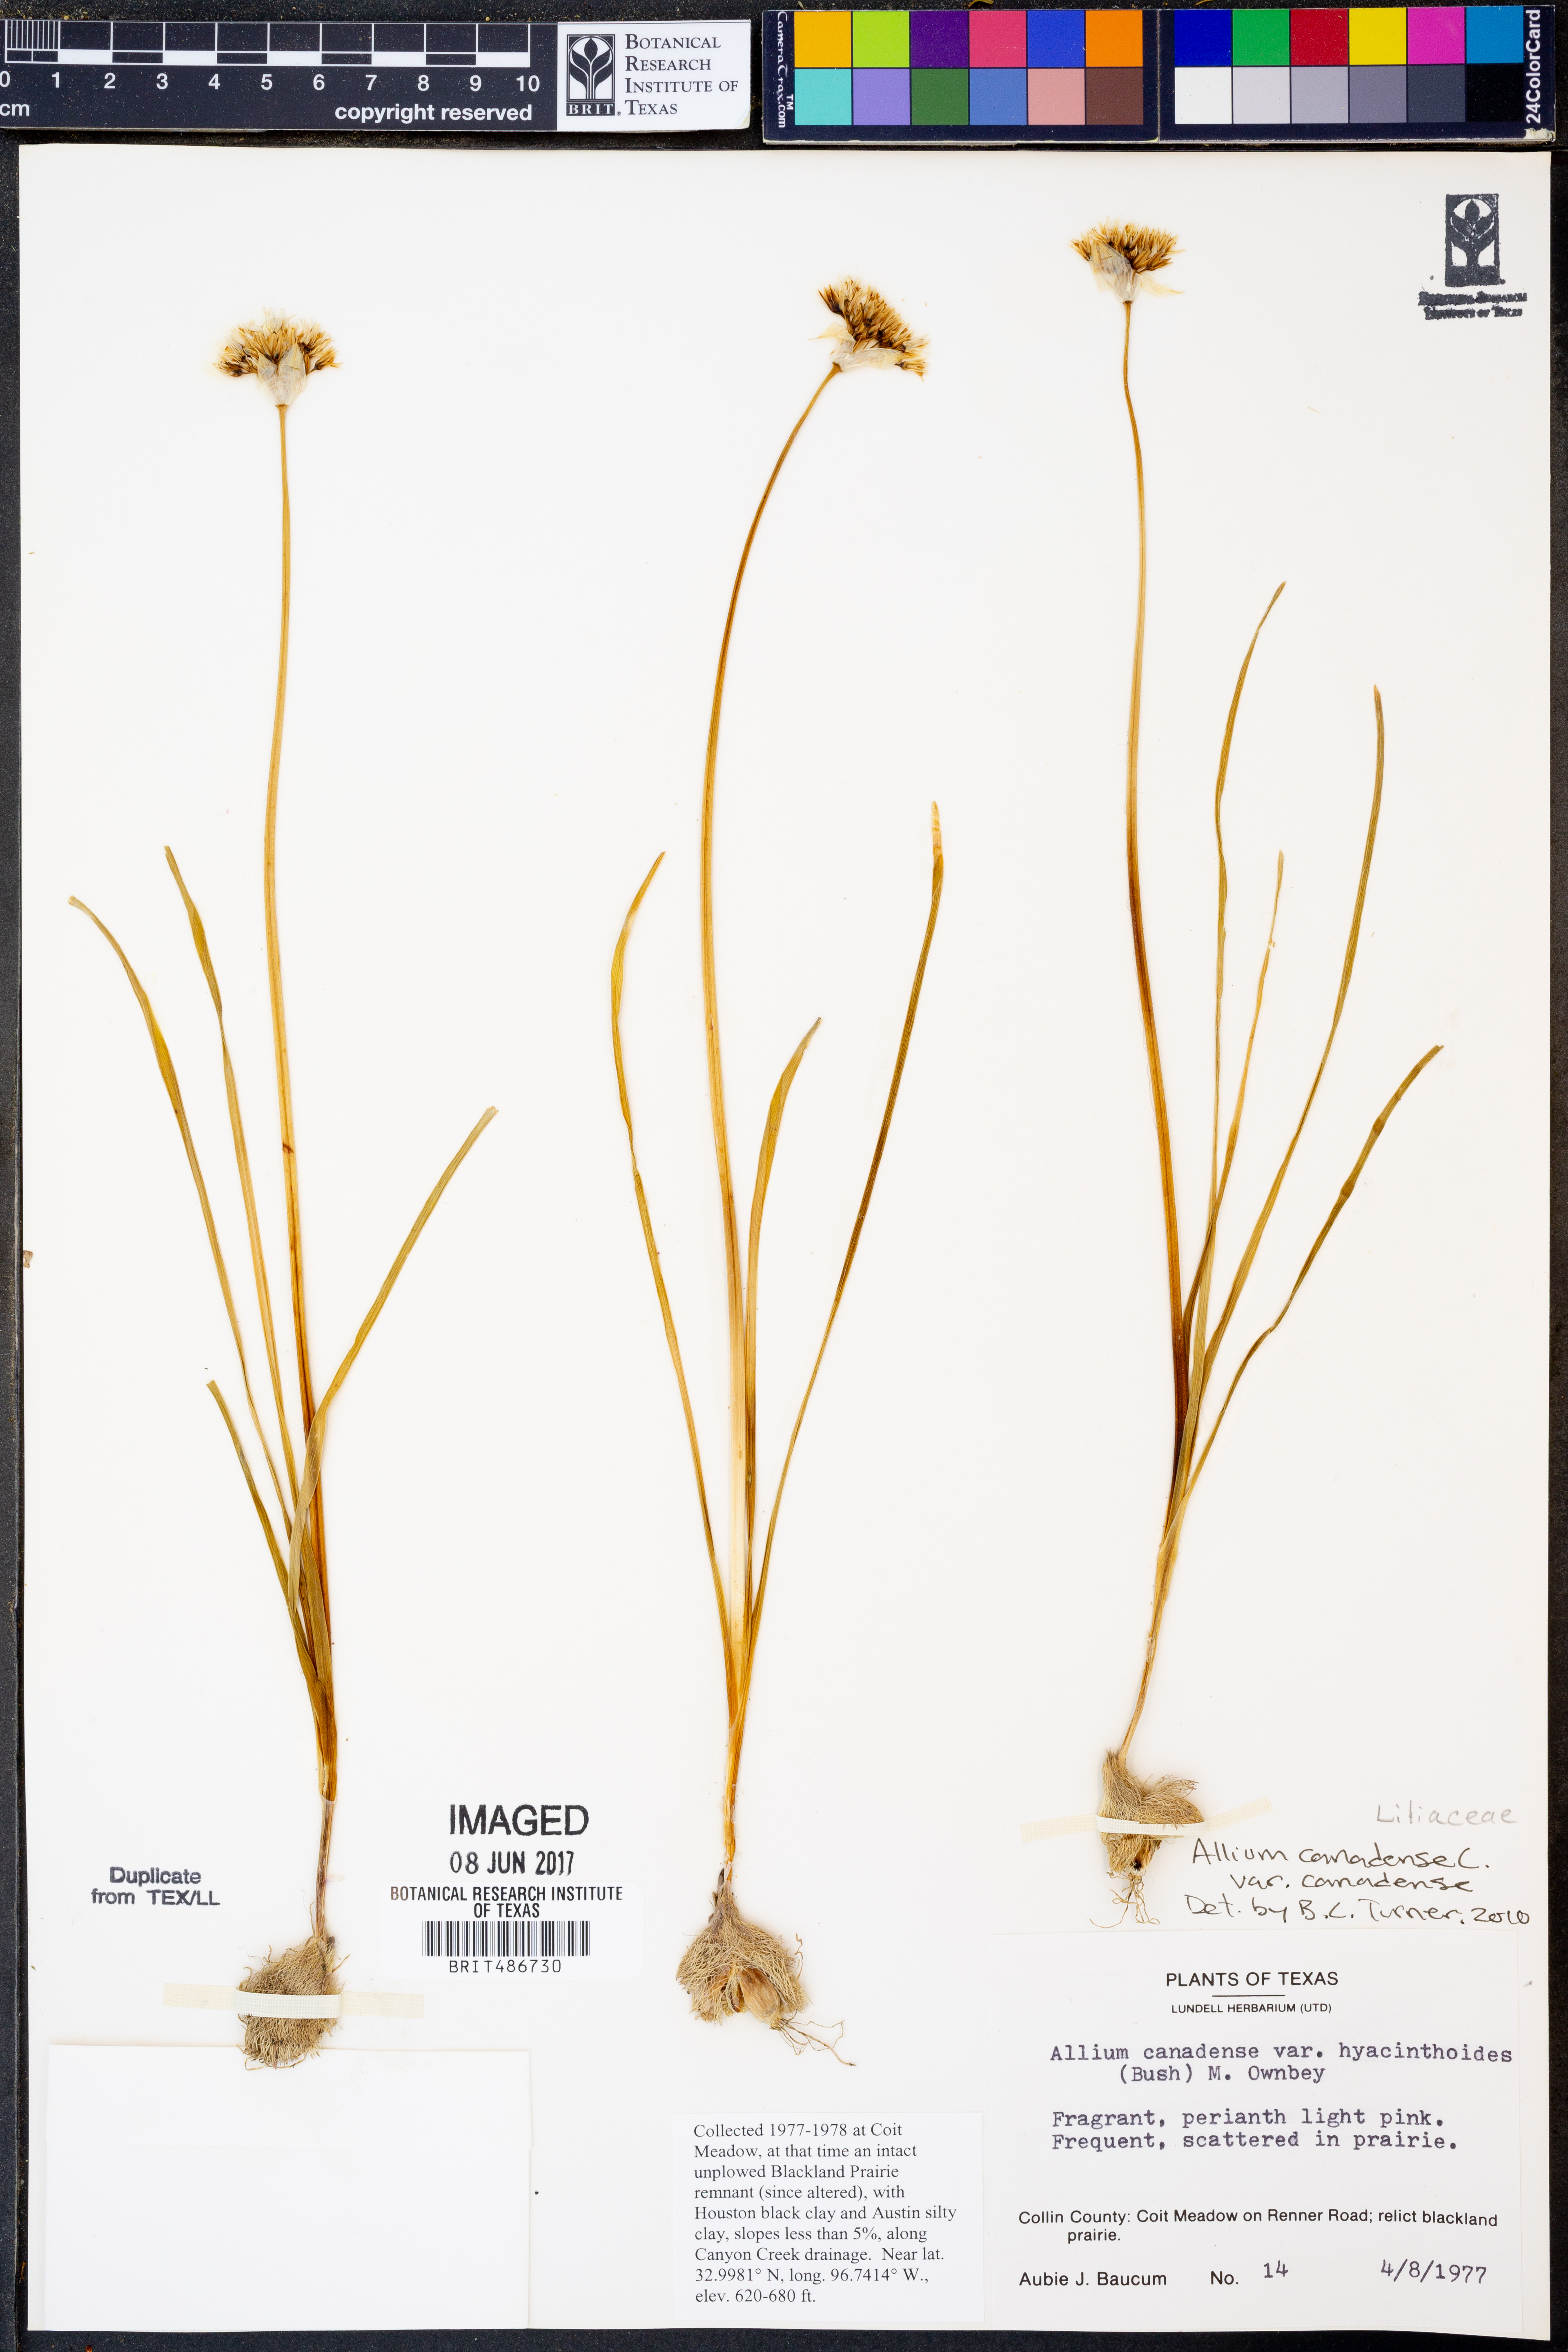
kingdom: Plantae
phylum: Tracheophyta
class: Liliopsida
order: Asparagales
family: Amaryllidaceae
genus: Allium
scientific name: Allium canadense
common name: Meadow garlic
